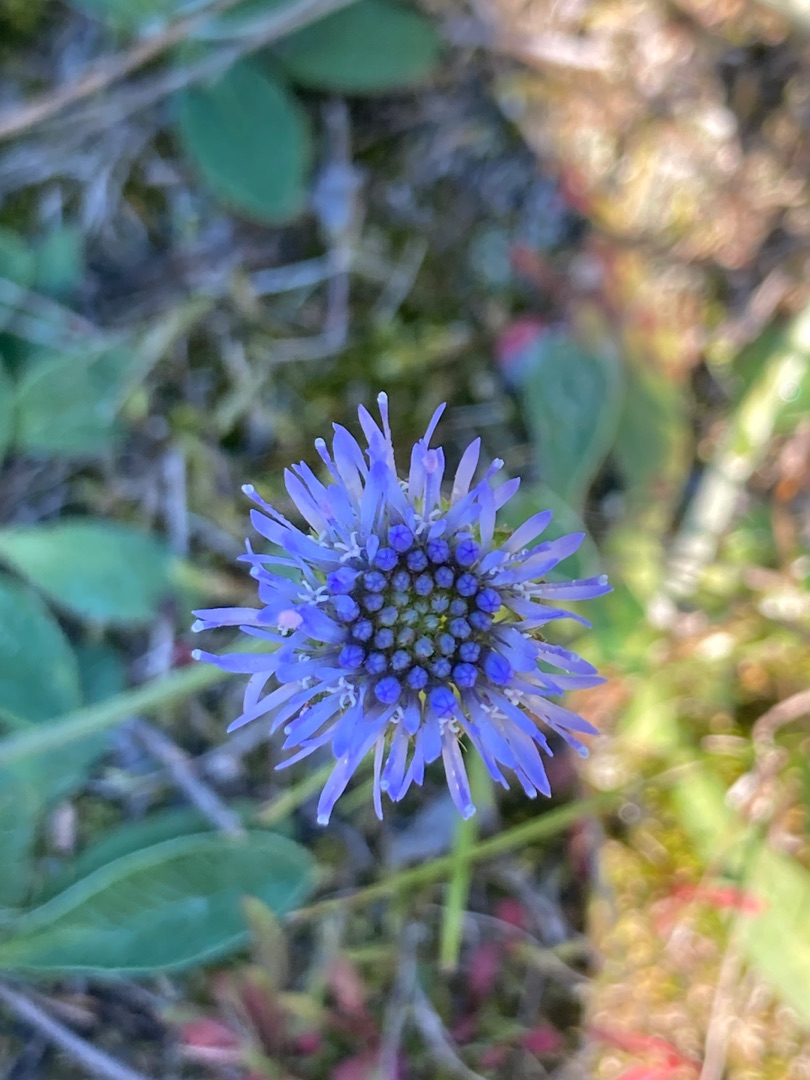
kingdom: Plantae
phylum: Tracheophyta
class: Magnoliopsida
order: Asterales
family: Campanulaceae
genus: Jasione
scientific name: Jasione montana
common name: Blåmunke
